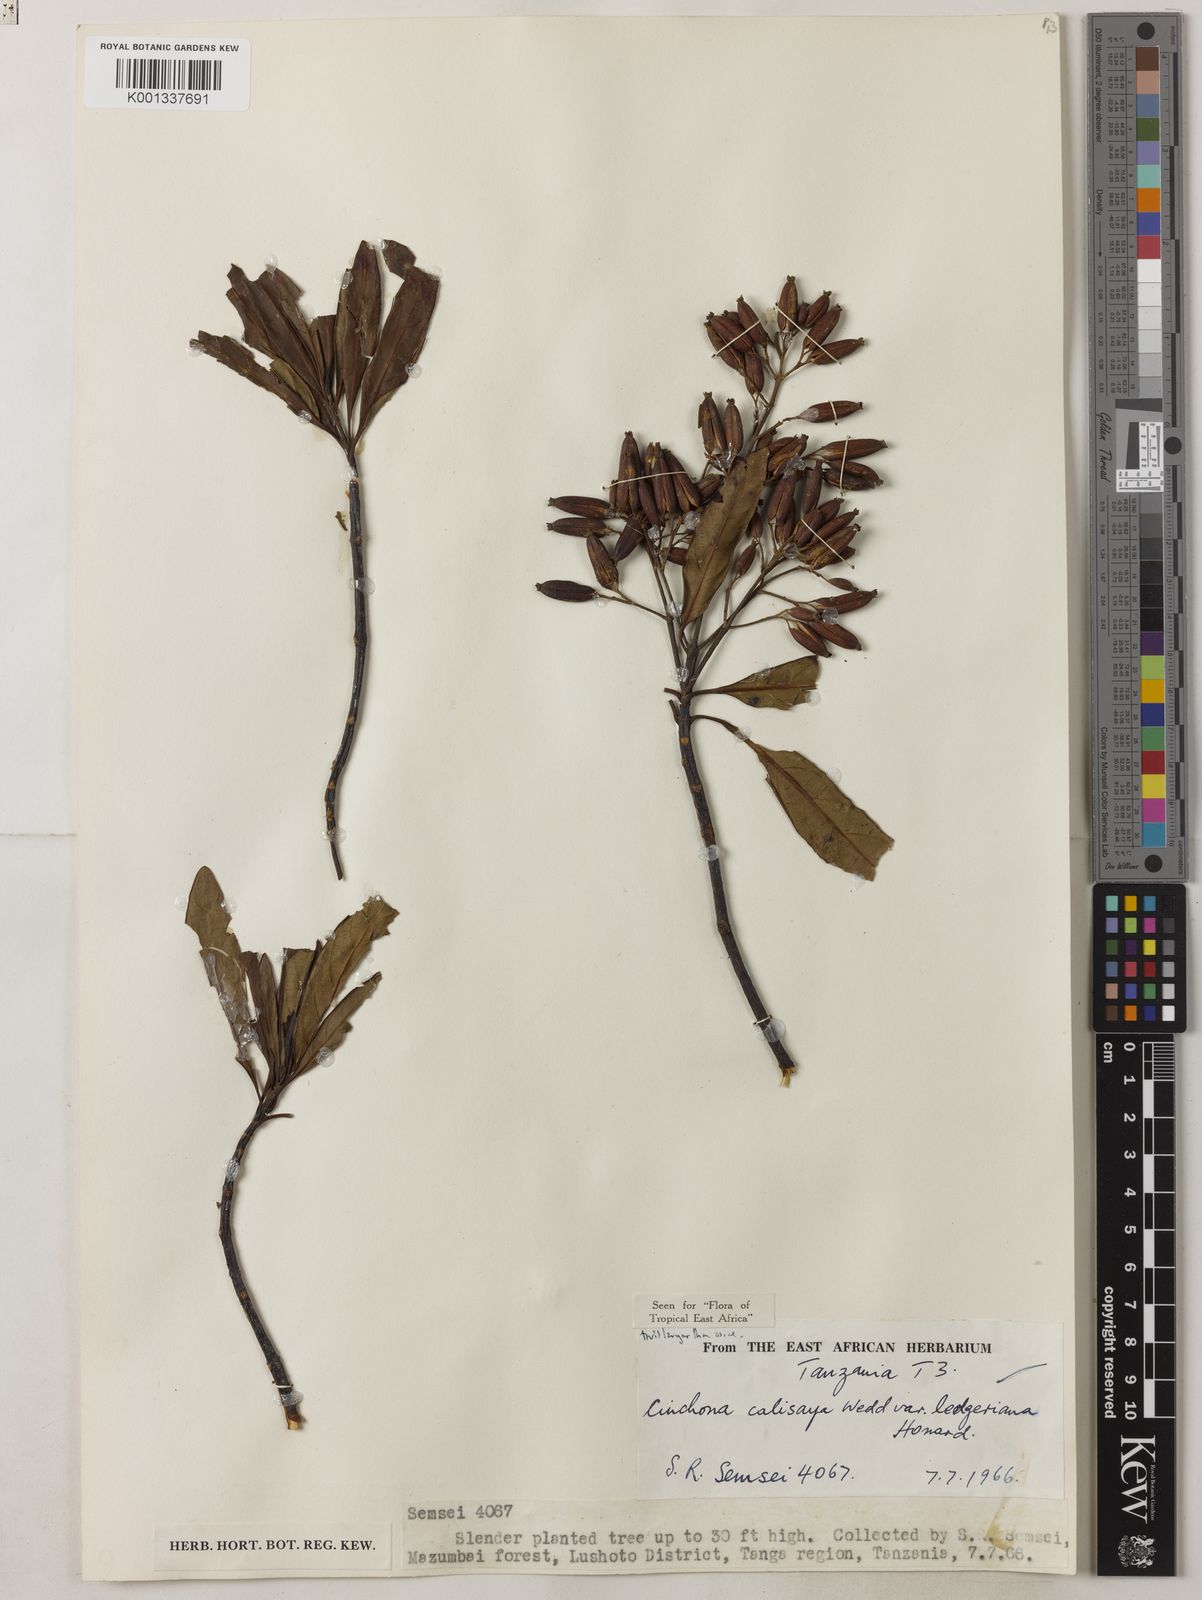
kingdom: Plantae
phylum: Tracheophyta
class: Magnoliopsida
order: Gentianales
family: Rubiaceae
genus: Cinchona
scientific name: Cinchona calisaya
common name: Ledgerbark
